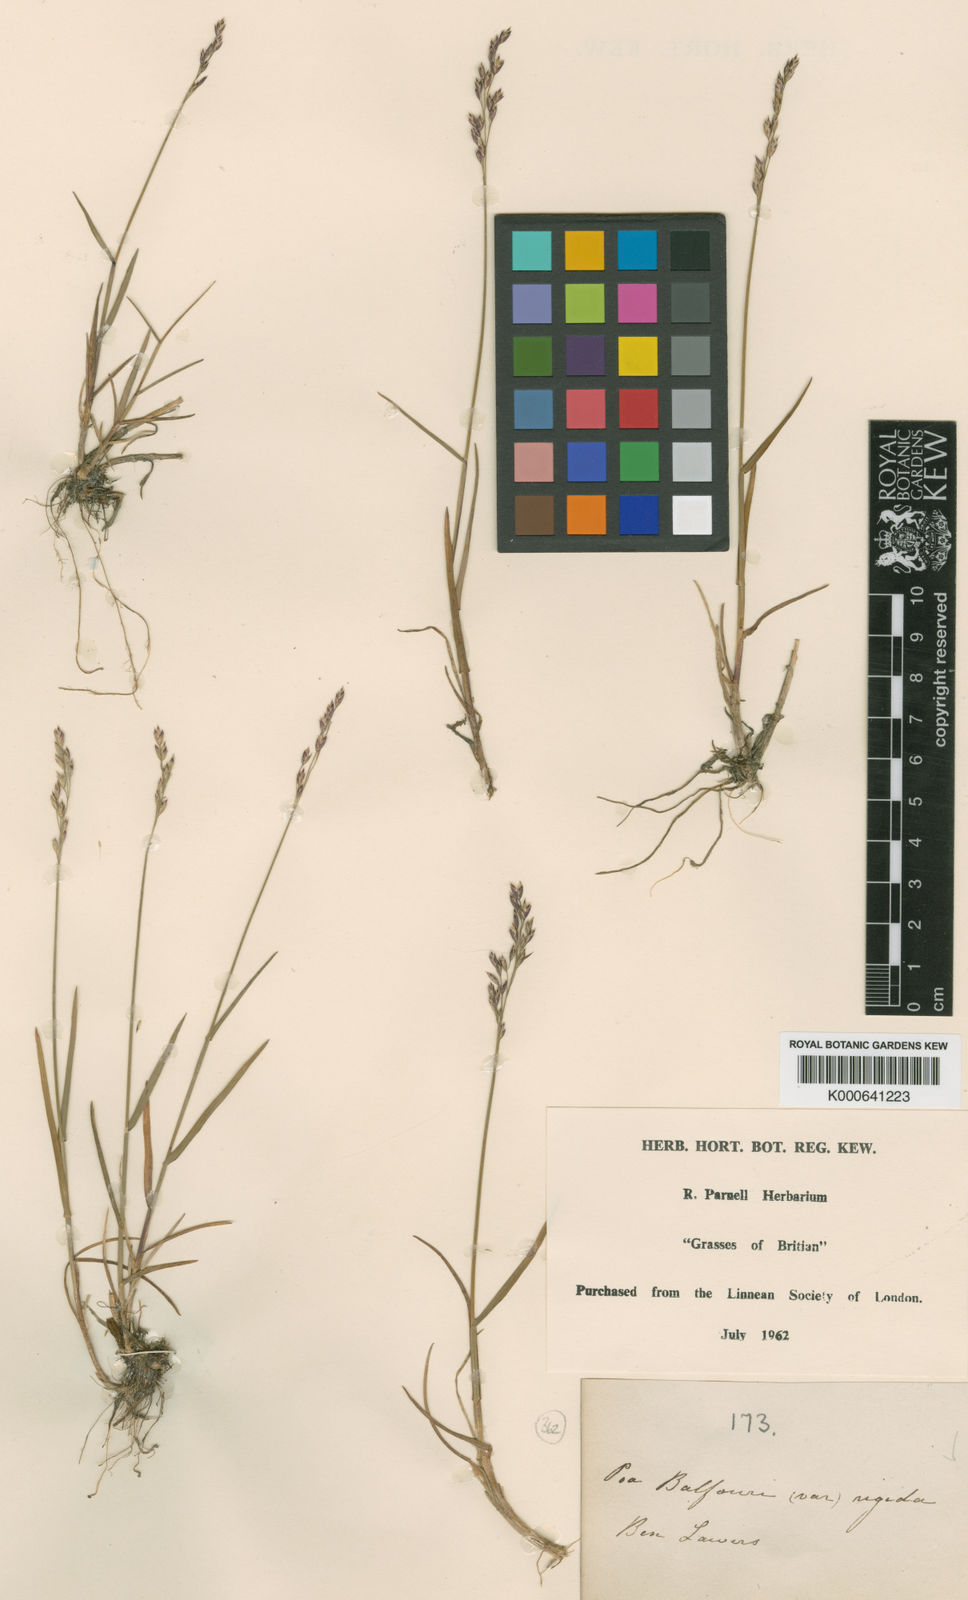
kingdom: Plantae
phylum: Tracheophyta
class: Liliopsida
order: Poales
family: Poaceae
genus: Poa
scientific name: Poa glauca
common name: Glaucous bluegrass
